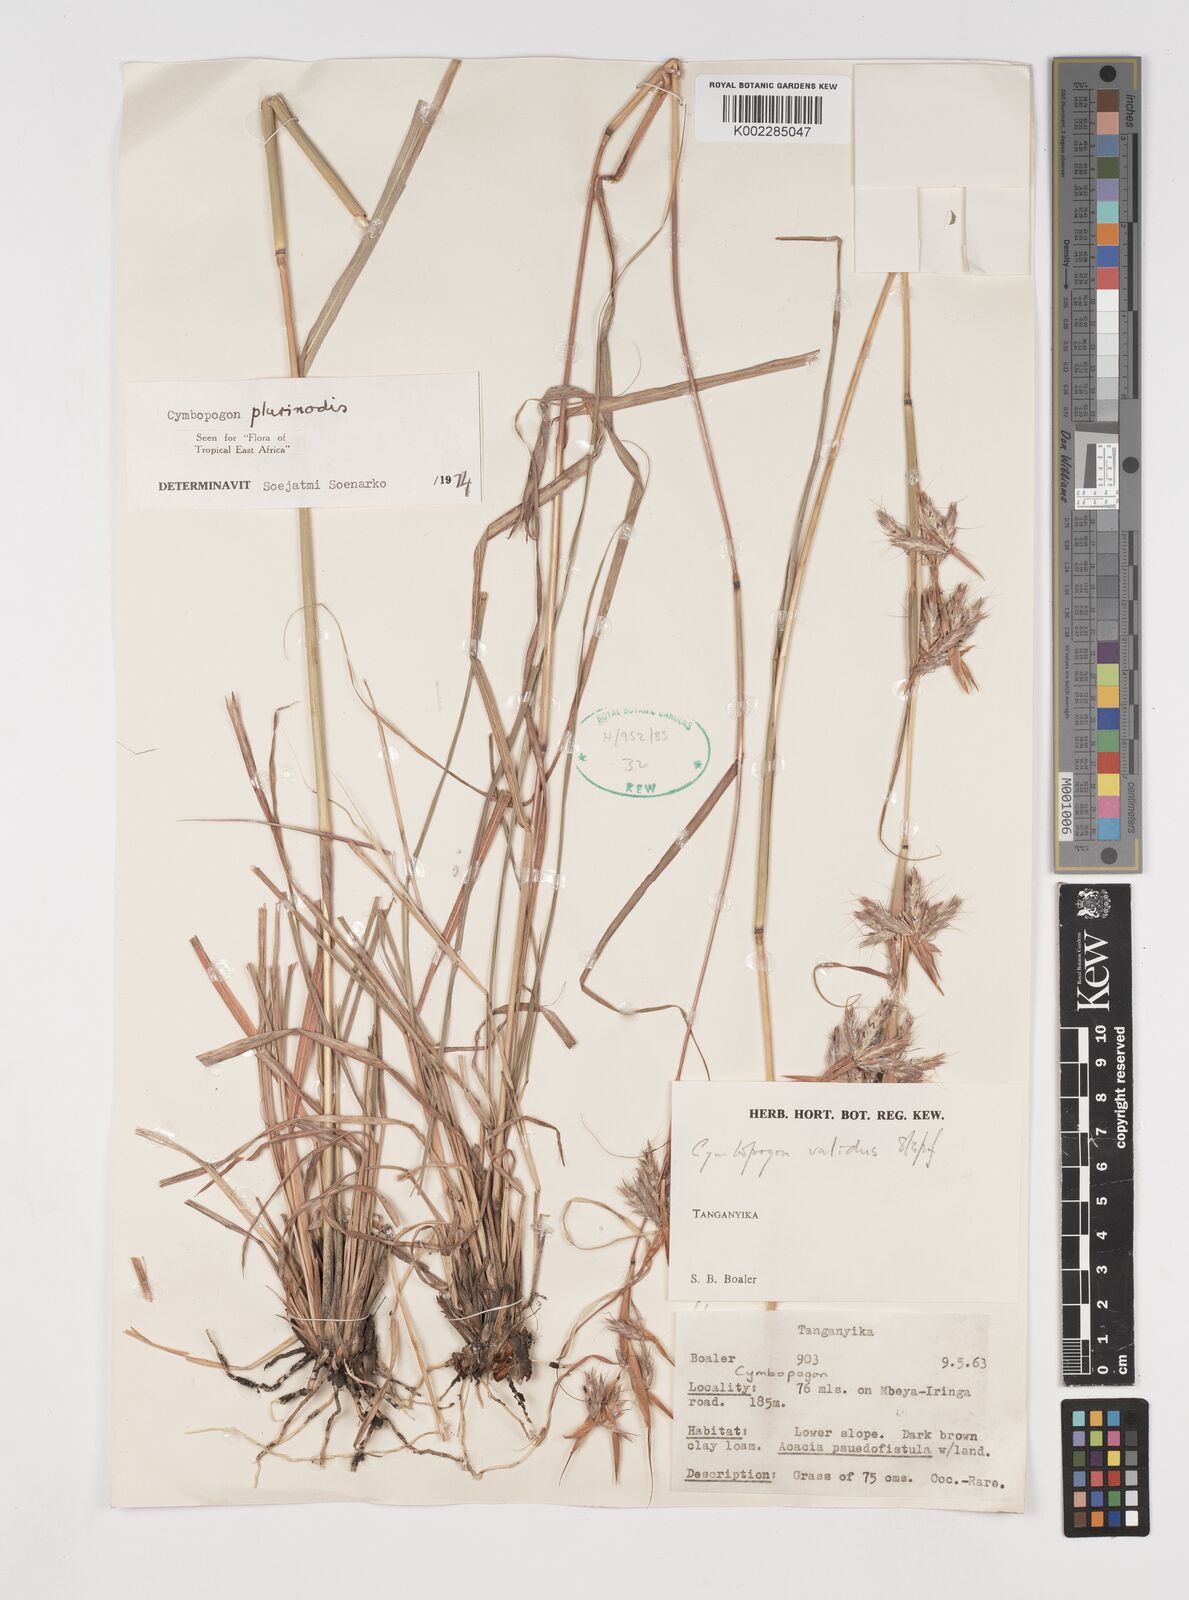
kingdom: Plantae
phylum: Tracheophyta
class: Liliopsida
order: Poales
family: Poaceae
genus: Cymbopogon
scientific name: Cymbopogon
